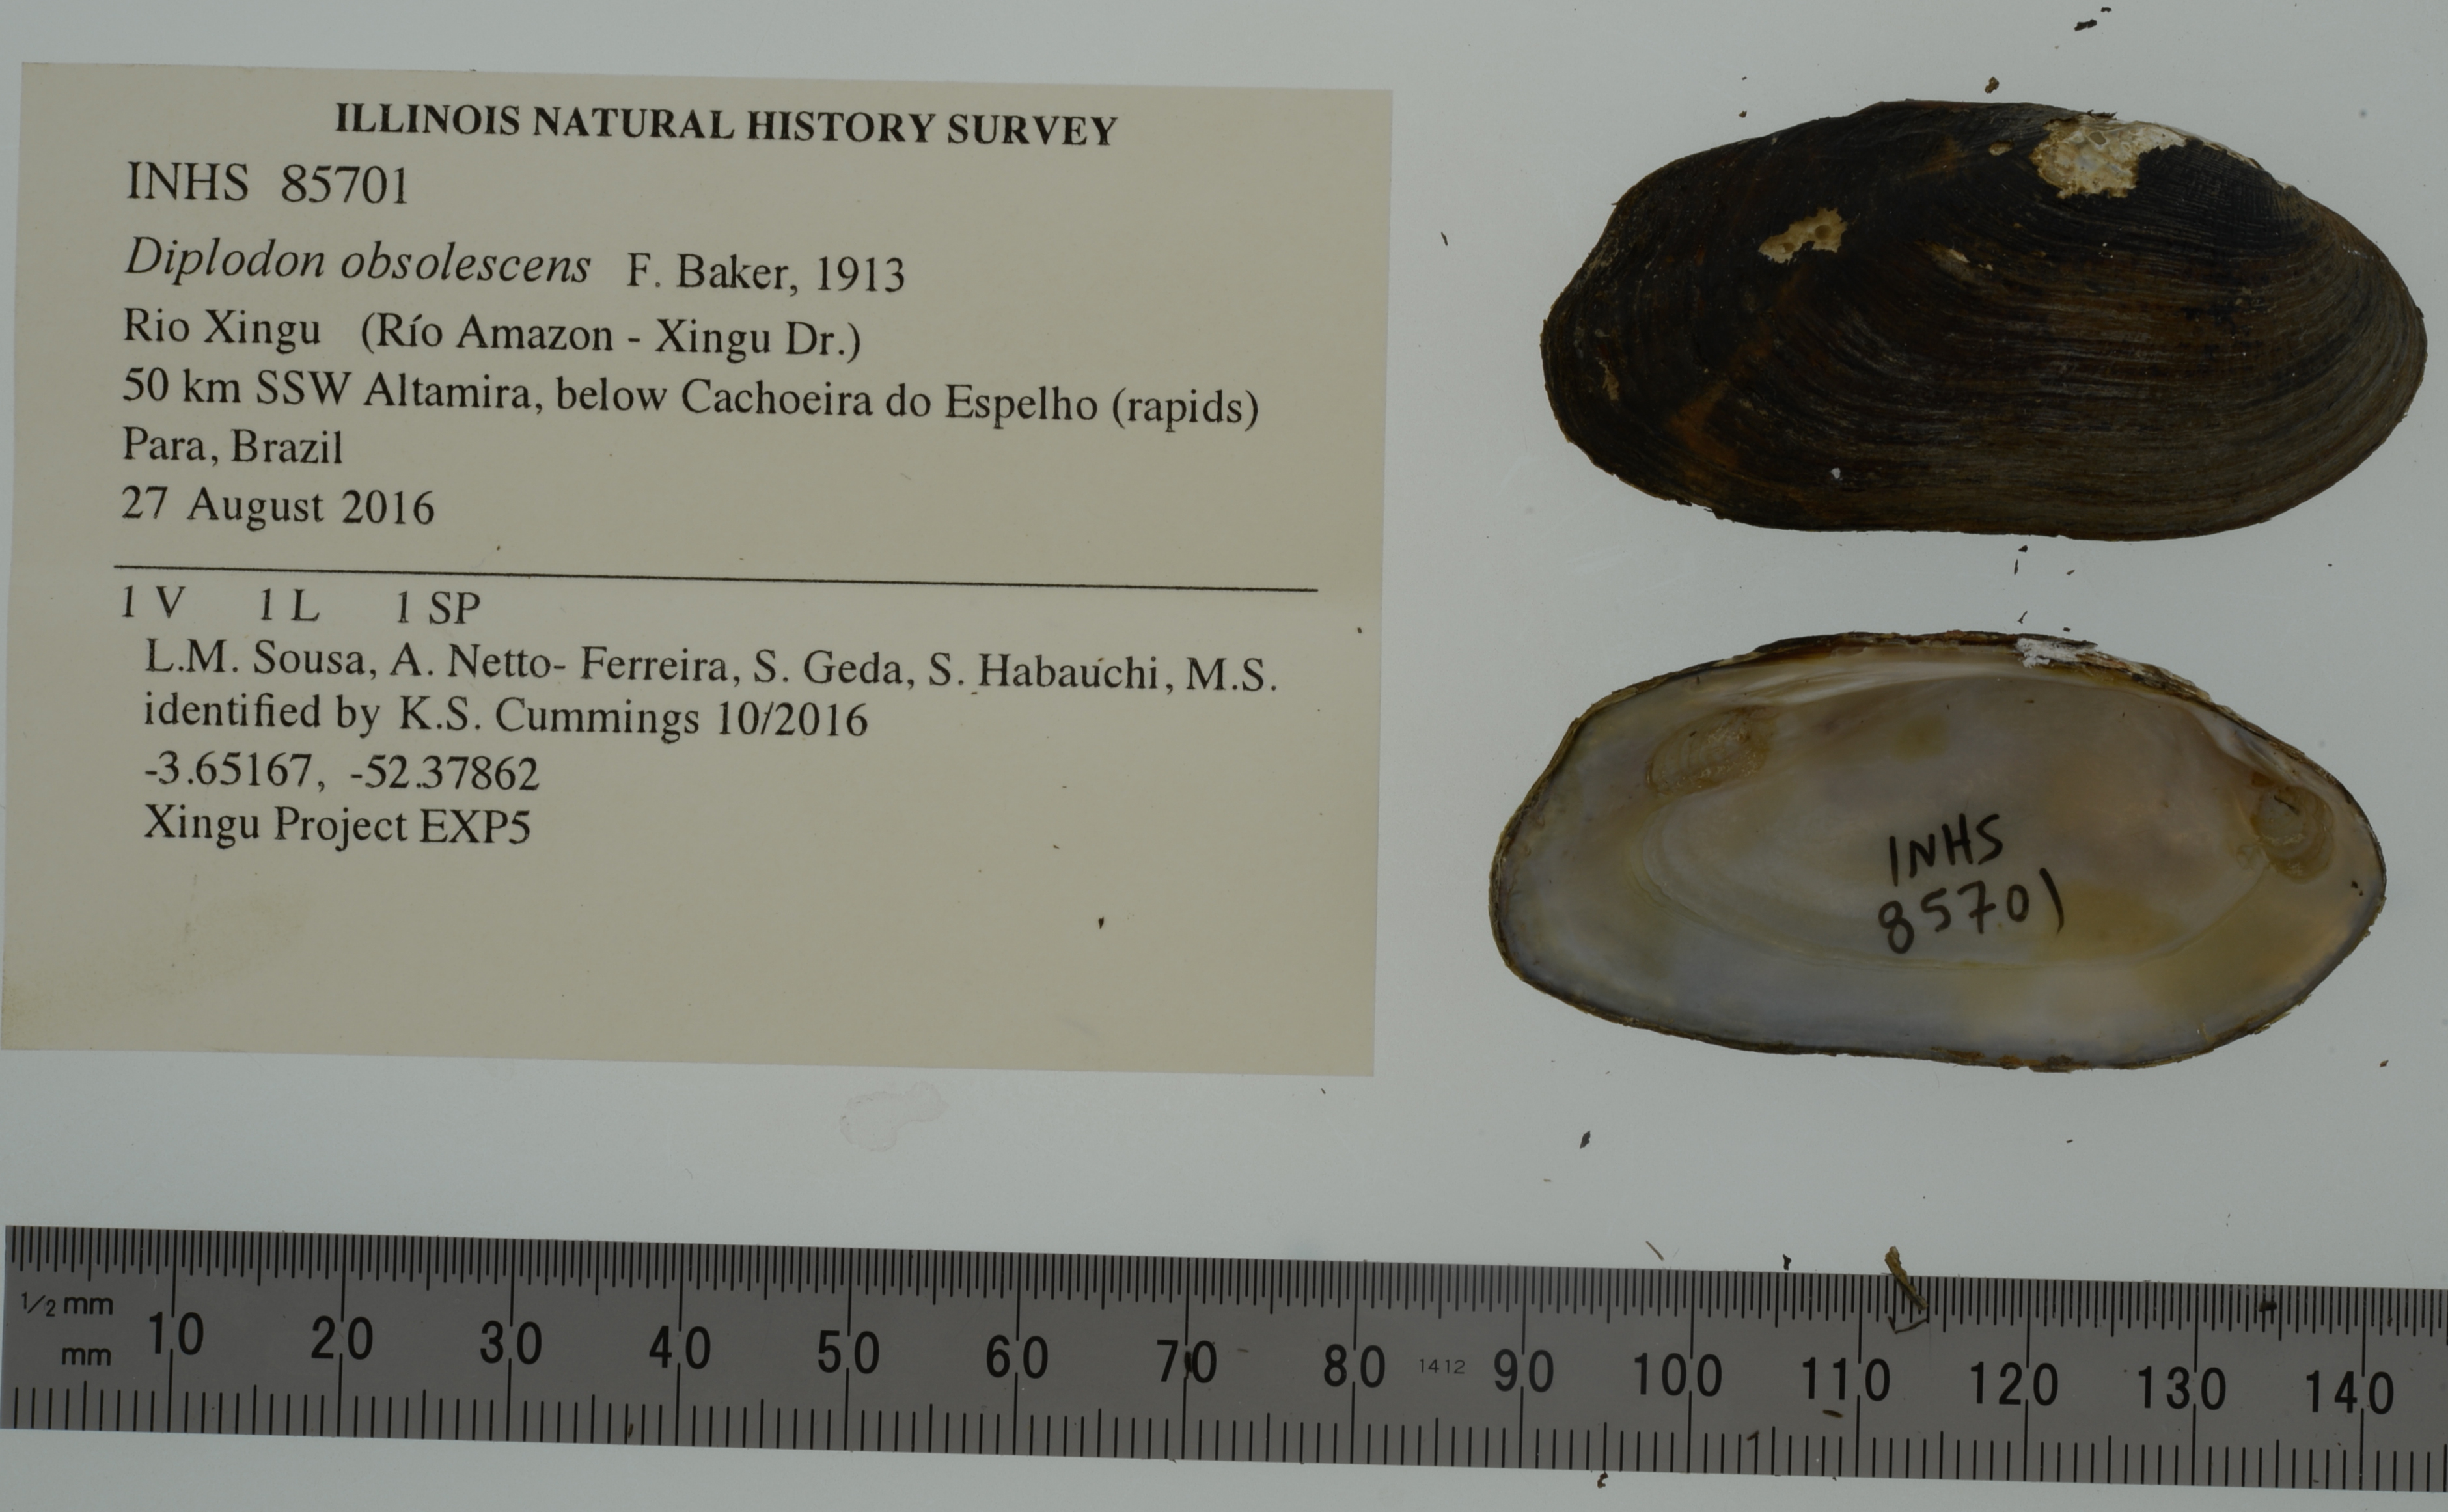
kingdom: Animalia
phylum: Mollusca
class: Bivalvia
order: Unionida
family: Hyriidae
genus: Diplodon
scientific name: Diplodon obsolescens
